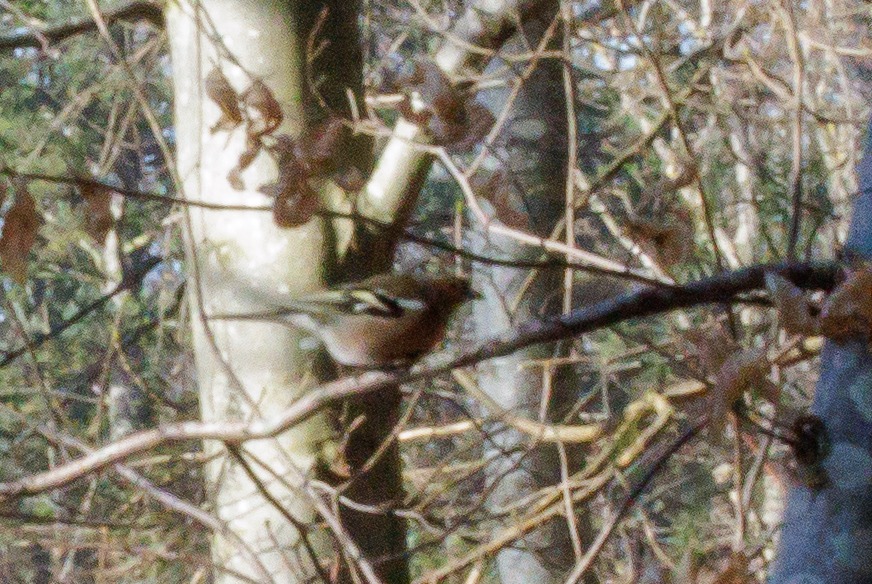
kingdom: Animalia
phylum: Chordata
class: Aves
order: Passeriformes
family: Fringillidae
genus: Fringilla
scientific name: Fringilla coelebs
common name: Bogfinke
